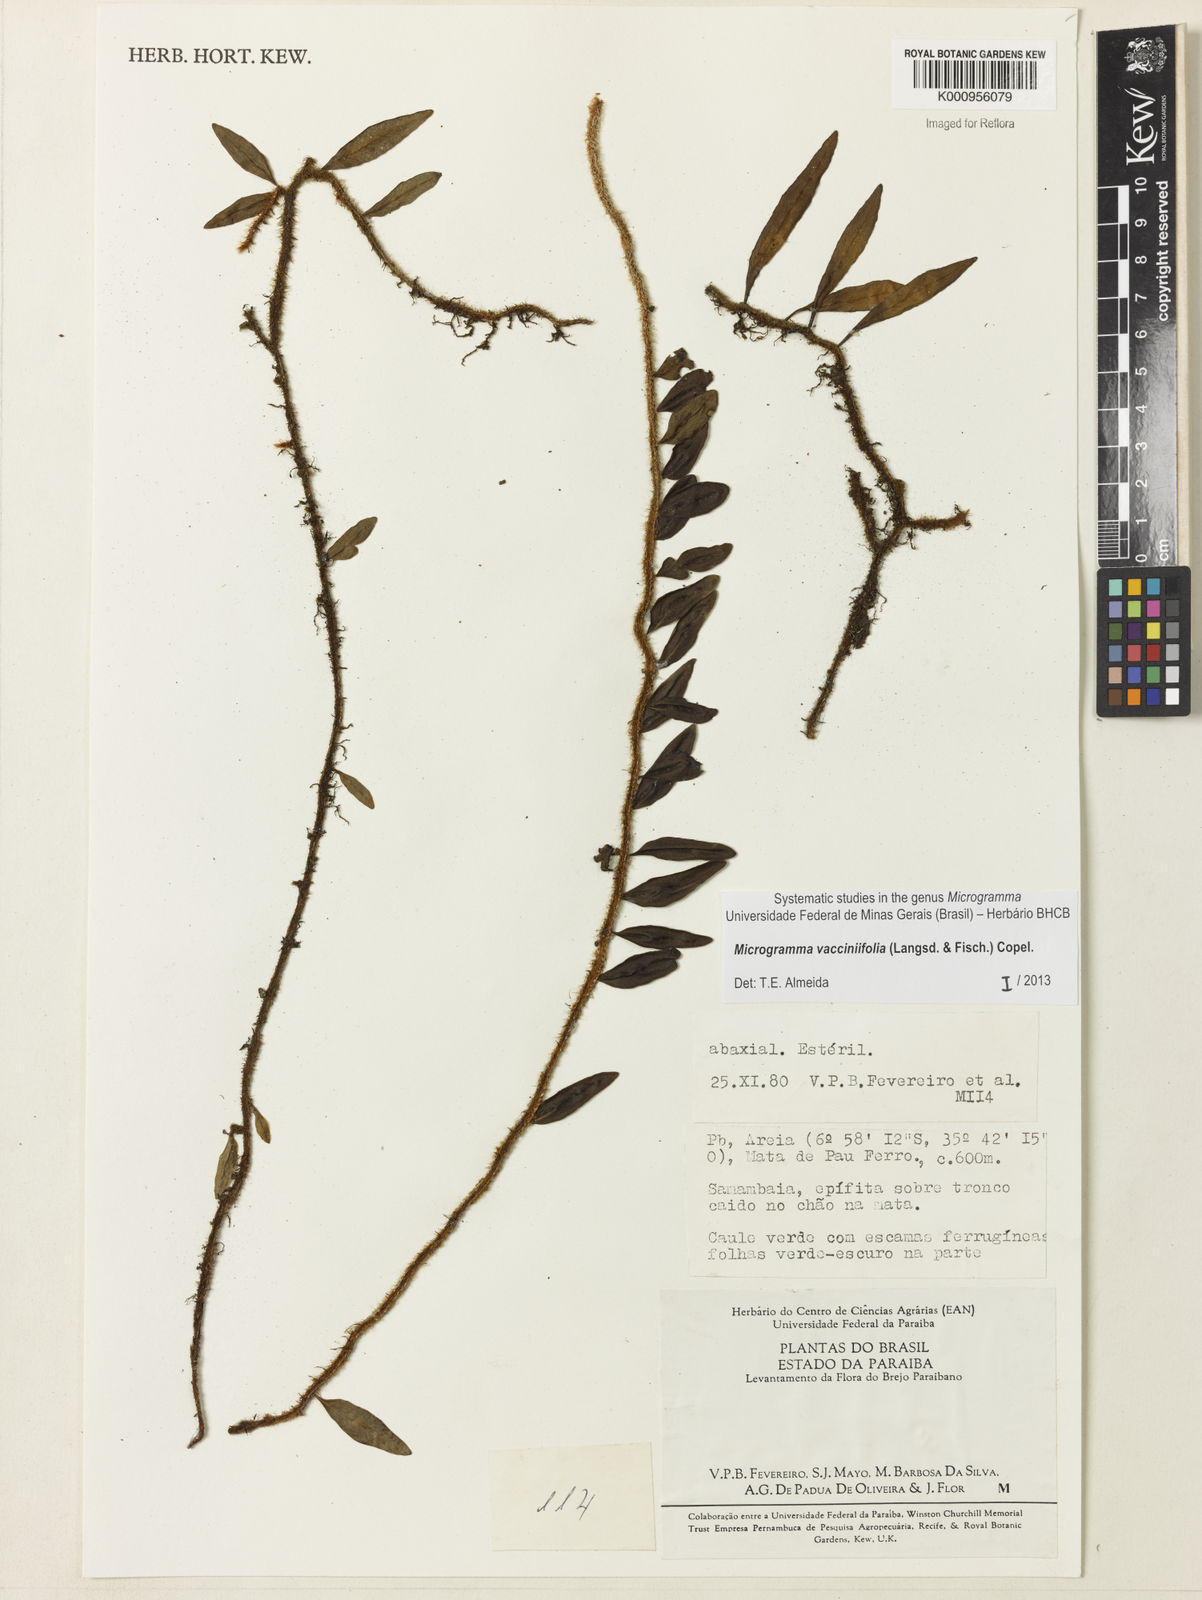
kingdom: Plantae
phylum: Tracheophyta
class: Polypodiopsida
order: Polypodiales
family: Polypodiaceae
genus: Phlebodium
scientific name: Phlebodium
